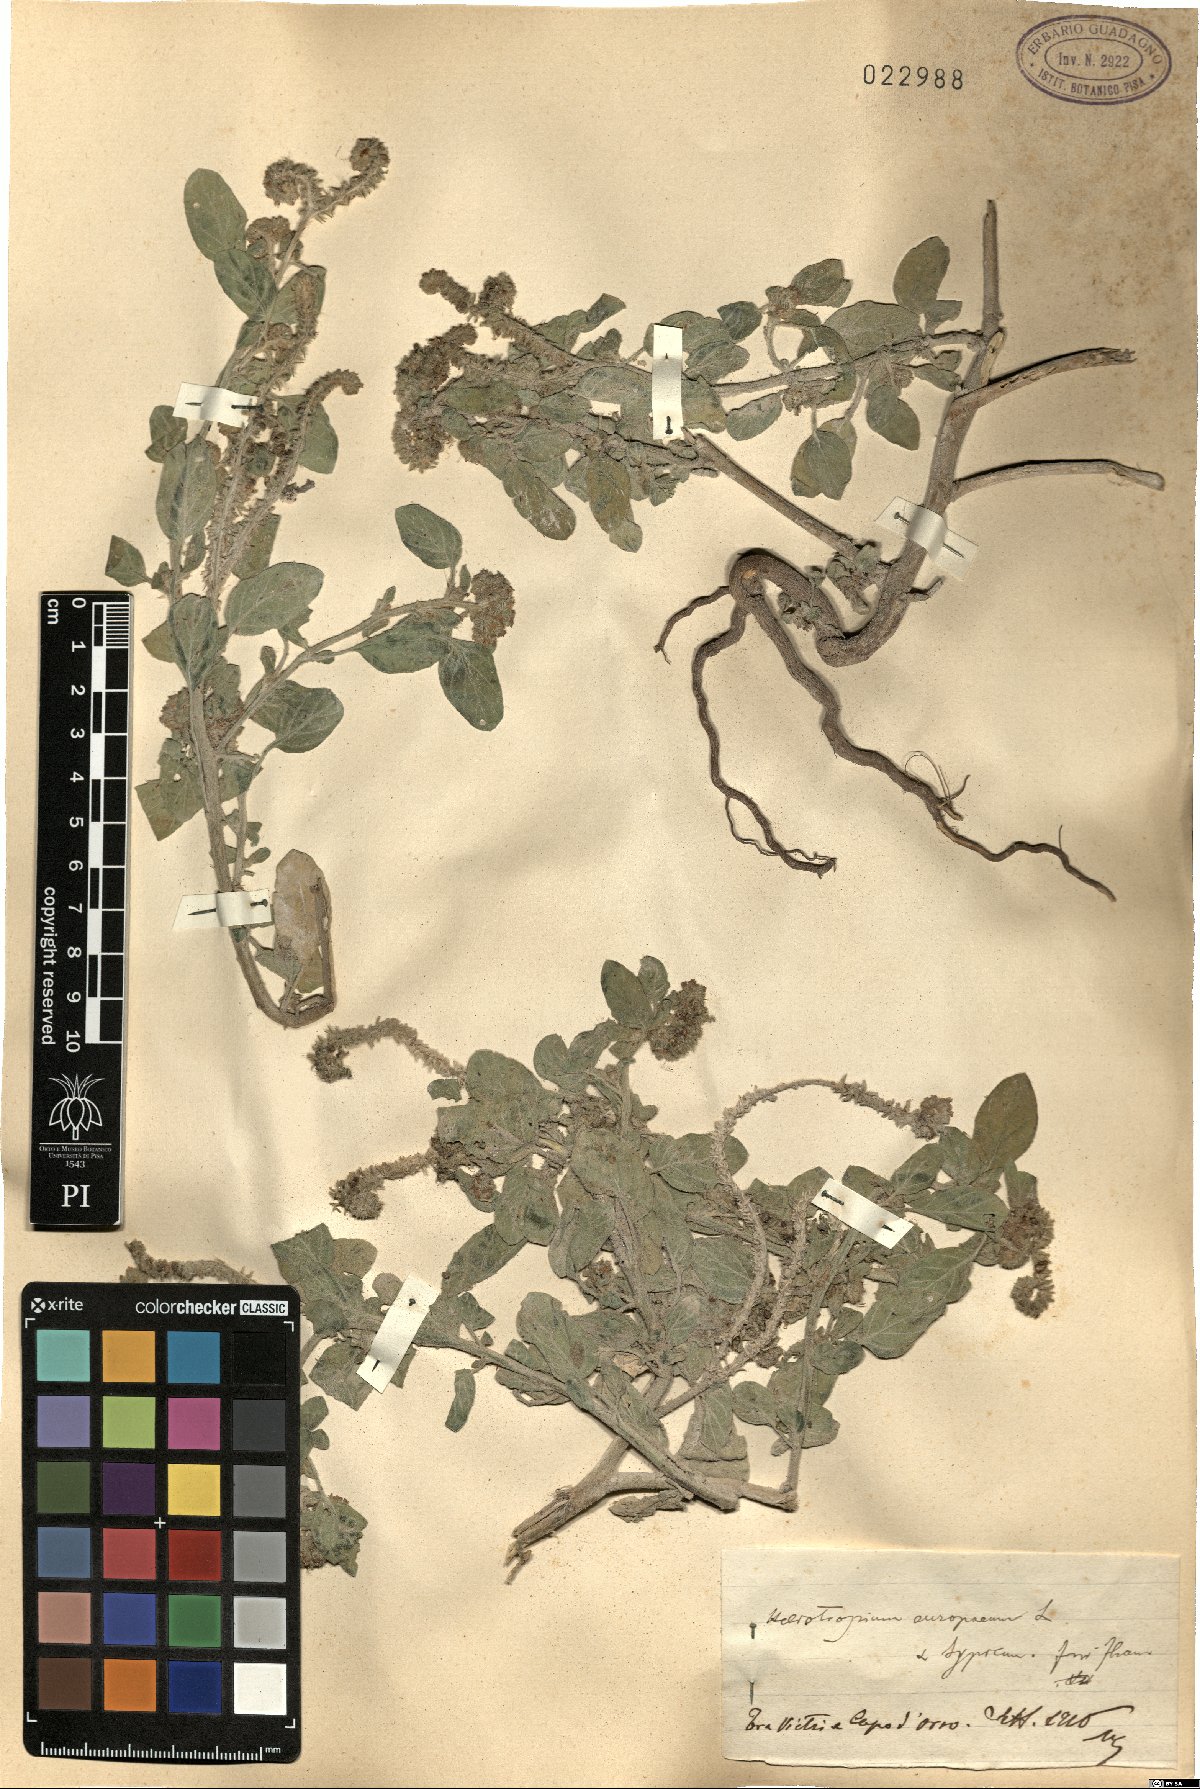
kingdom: Plantae
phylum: Tracheophyta
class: Magnoliopsida
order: Boraginales
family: Heliotropiaceae
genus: Heliotropium
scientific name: Heliotropium europaeum
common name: European heliotrope
